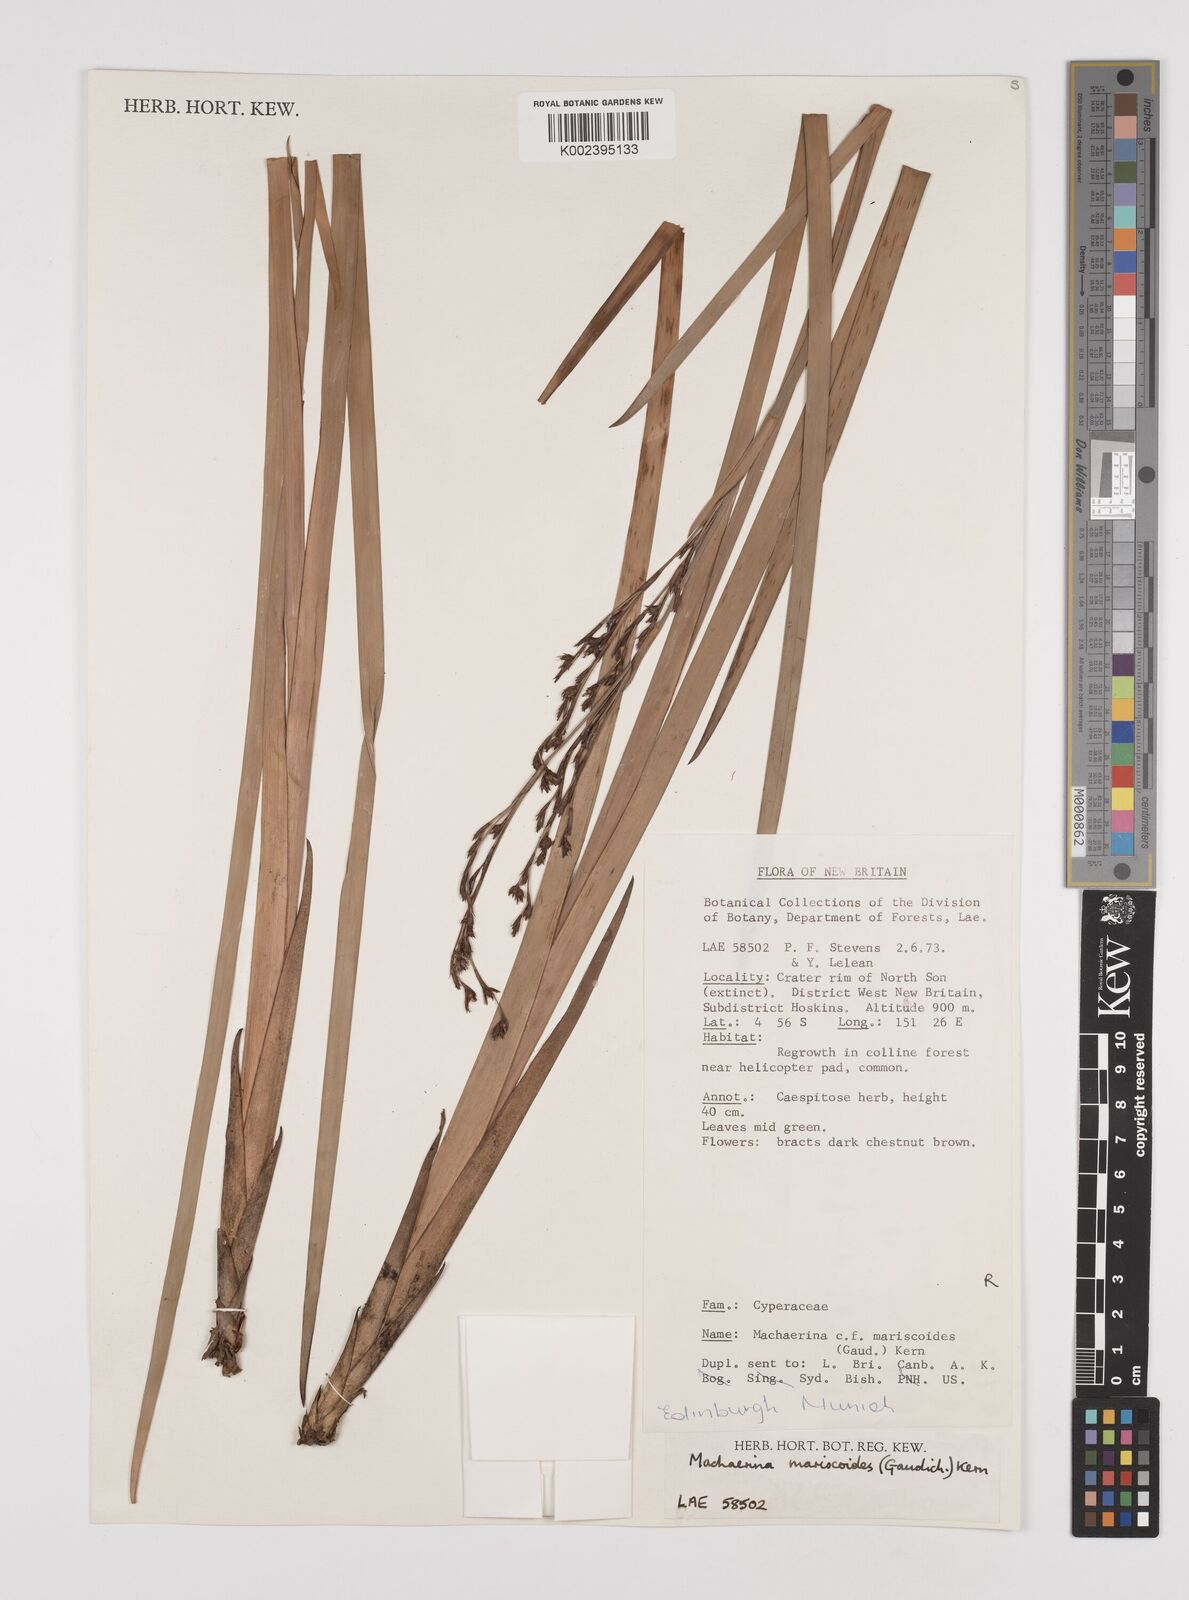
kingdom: Plantae
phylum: Tracheophyta
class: Liliopsida
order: Poales
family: Cyperaceae
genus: Machaerina
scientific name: Machaerina mariscoides
